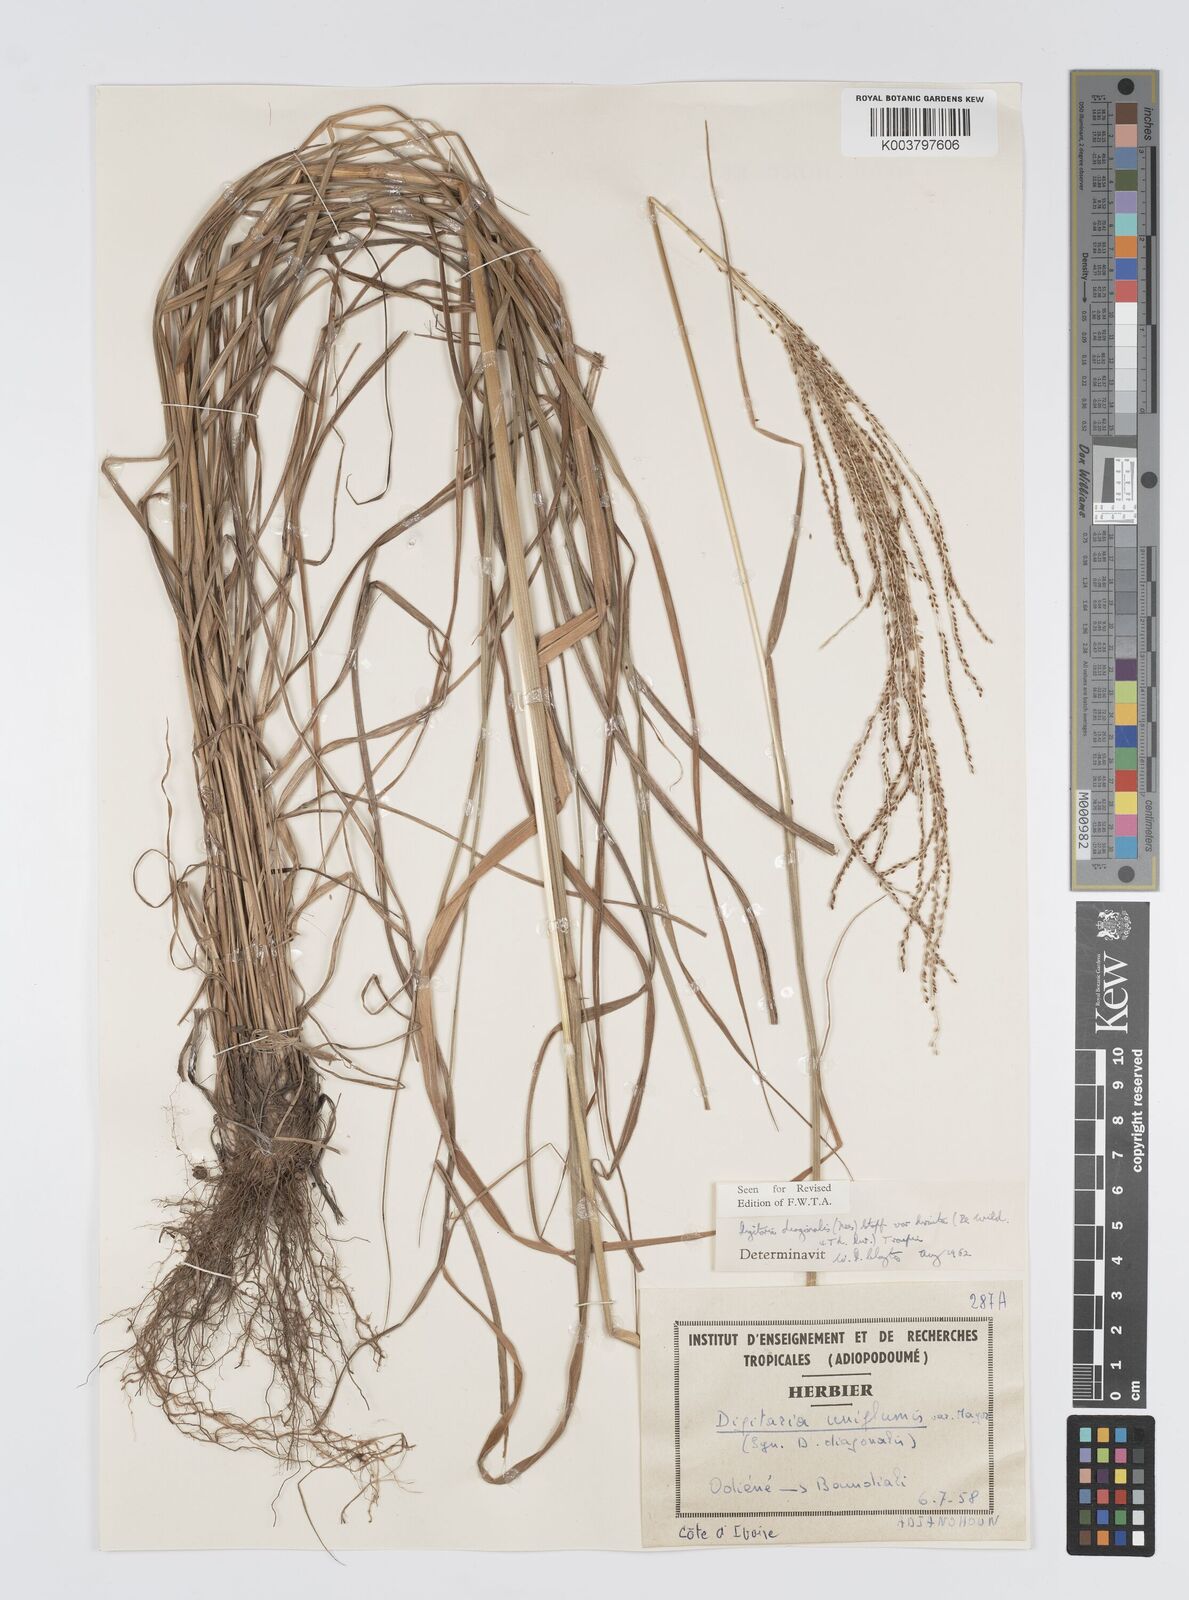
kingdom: Plantae
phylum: Tracheophyta
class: Liliopsida
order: Poales
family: Poaceae
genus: Digitaria
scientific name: Digitaria diagonalis
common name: Brown-seed finger grass
